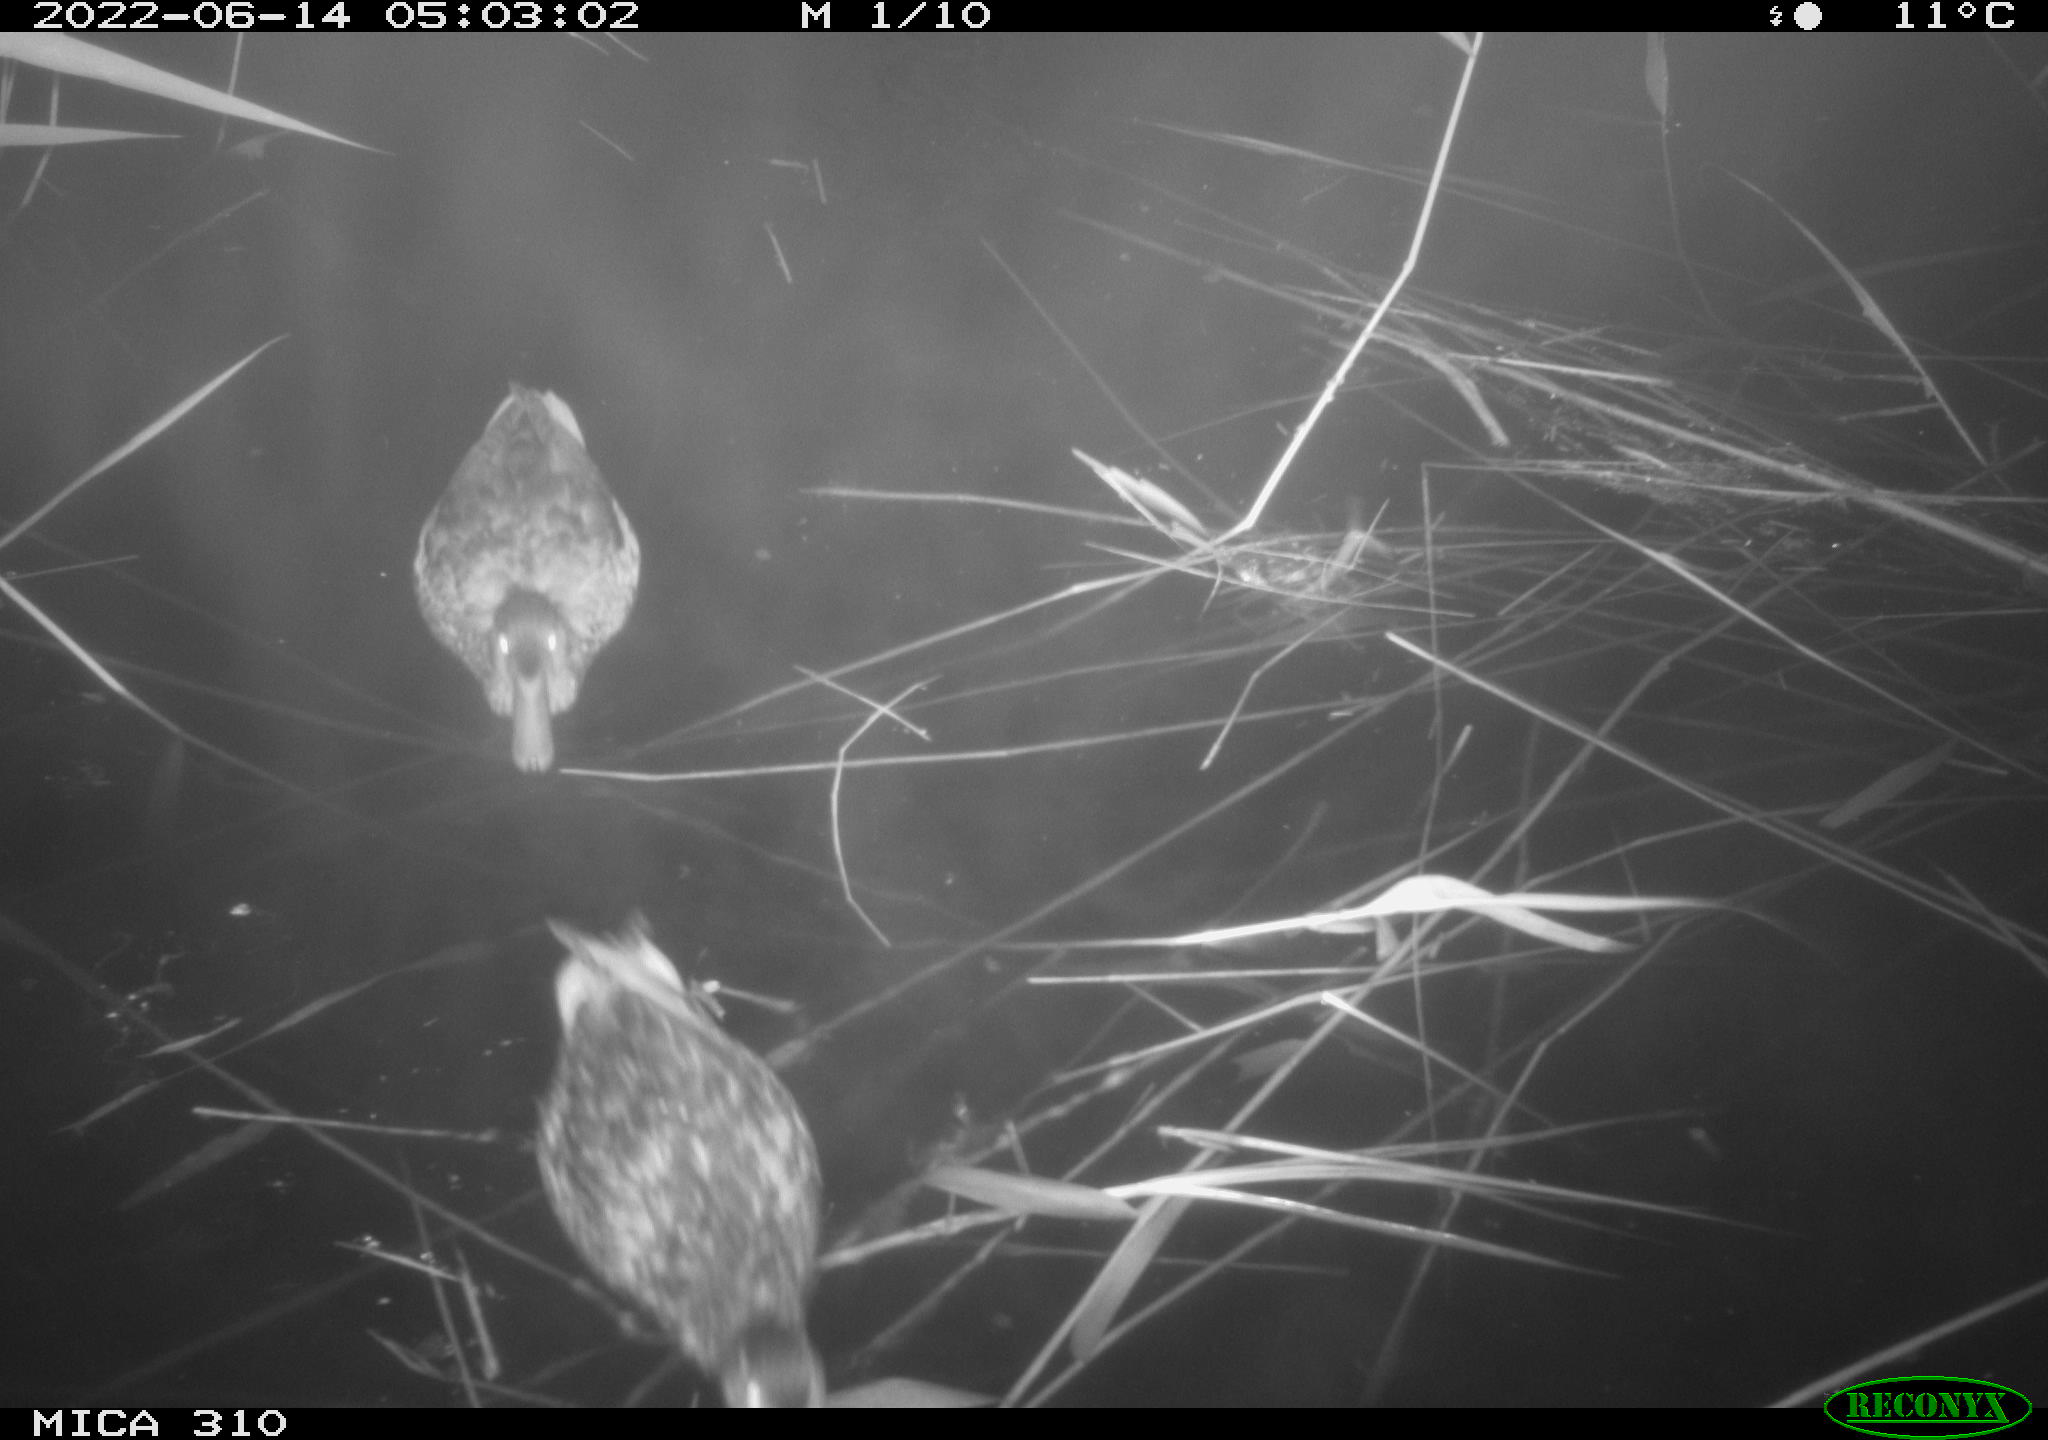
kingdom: Animalia
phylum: Chordata
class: Aves
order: Anseriformes
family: Anatidae
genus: Anas
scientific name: Anas platyrhynchos
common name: Mallard
